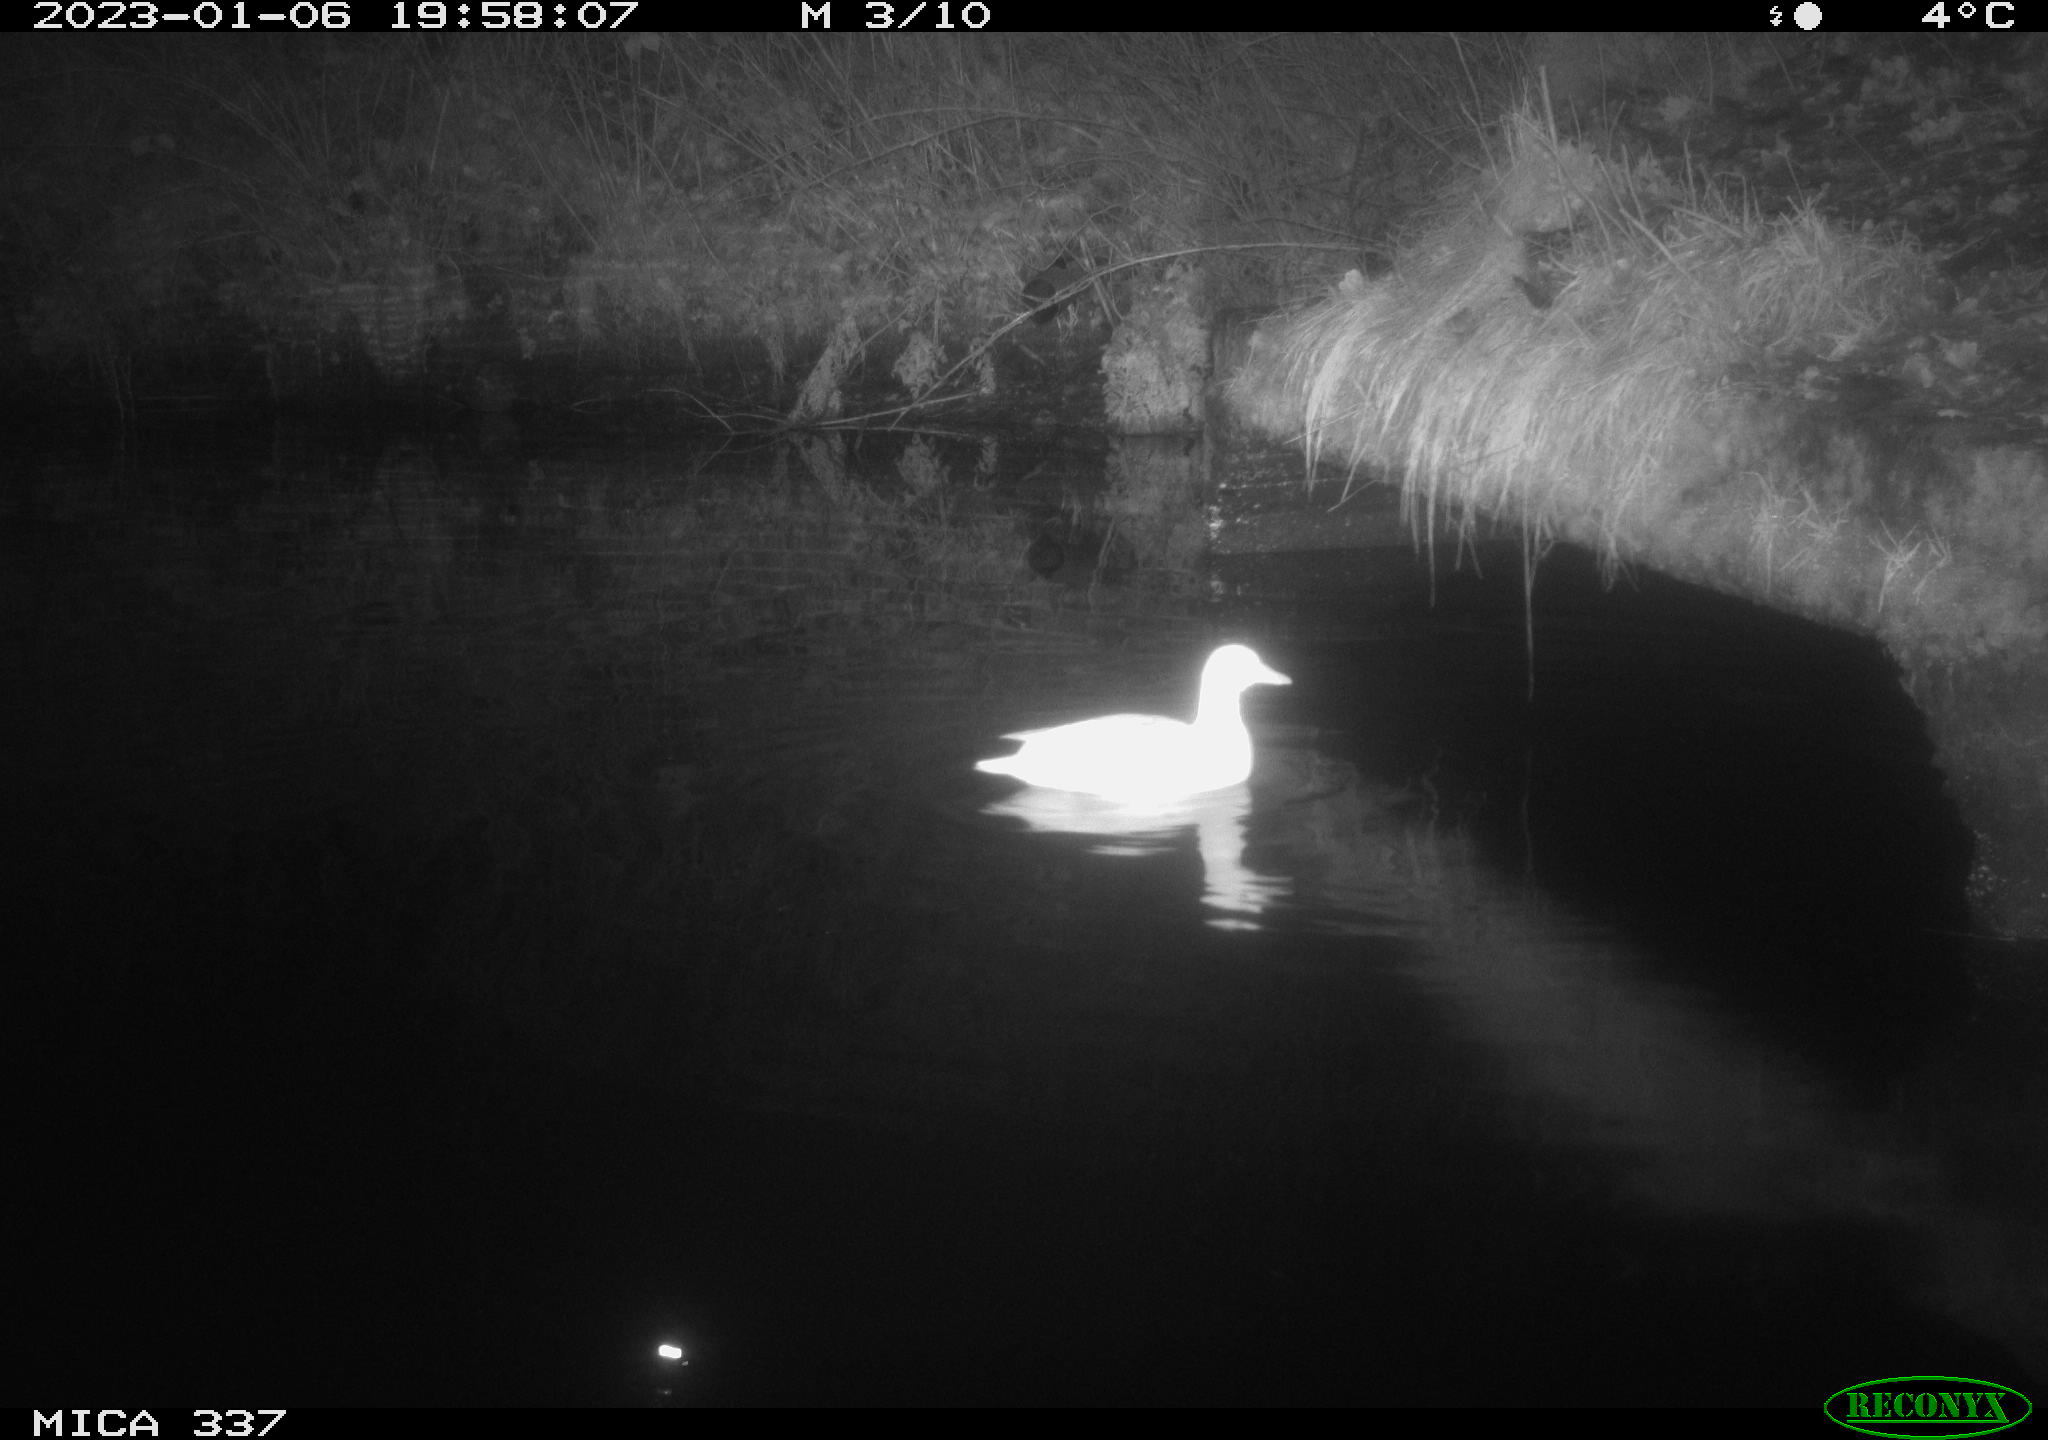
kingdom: Animalia
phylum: Chordata
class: Aves
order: Anseriformes
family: Anatidae
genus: Anas
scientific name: Anas
